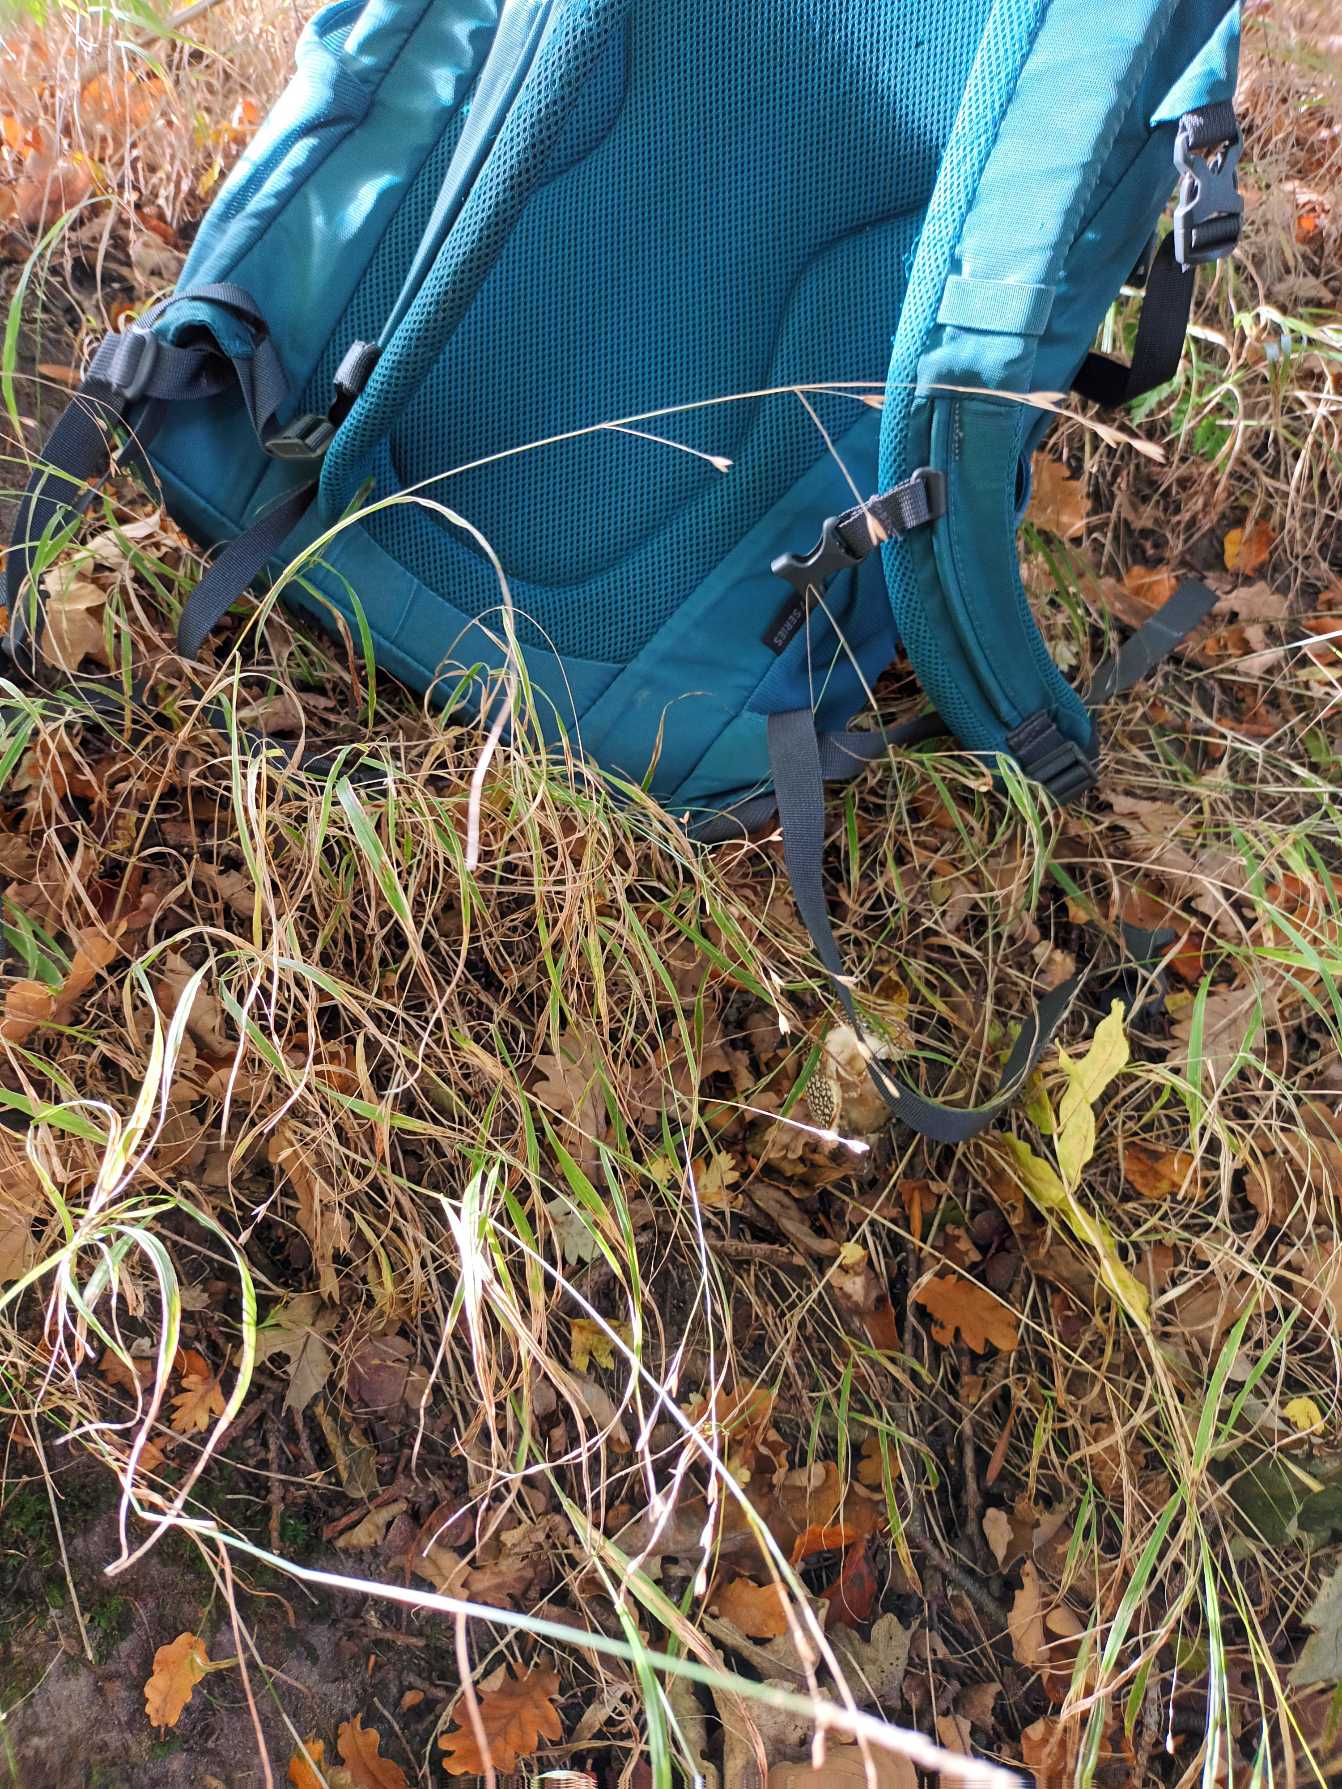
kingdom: Plantae
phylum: Tracheophyta
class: Liliopsida
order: Poales
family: Poaceae
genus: Melica
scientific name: Melica uniflora
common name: Enblomstret flitteraks
